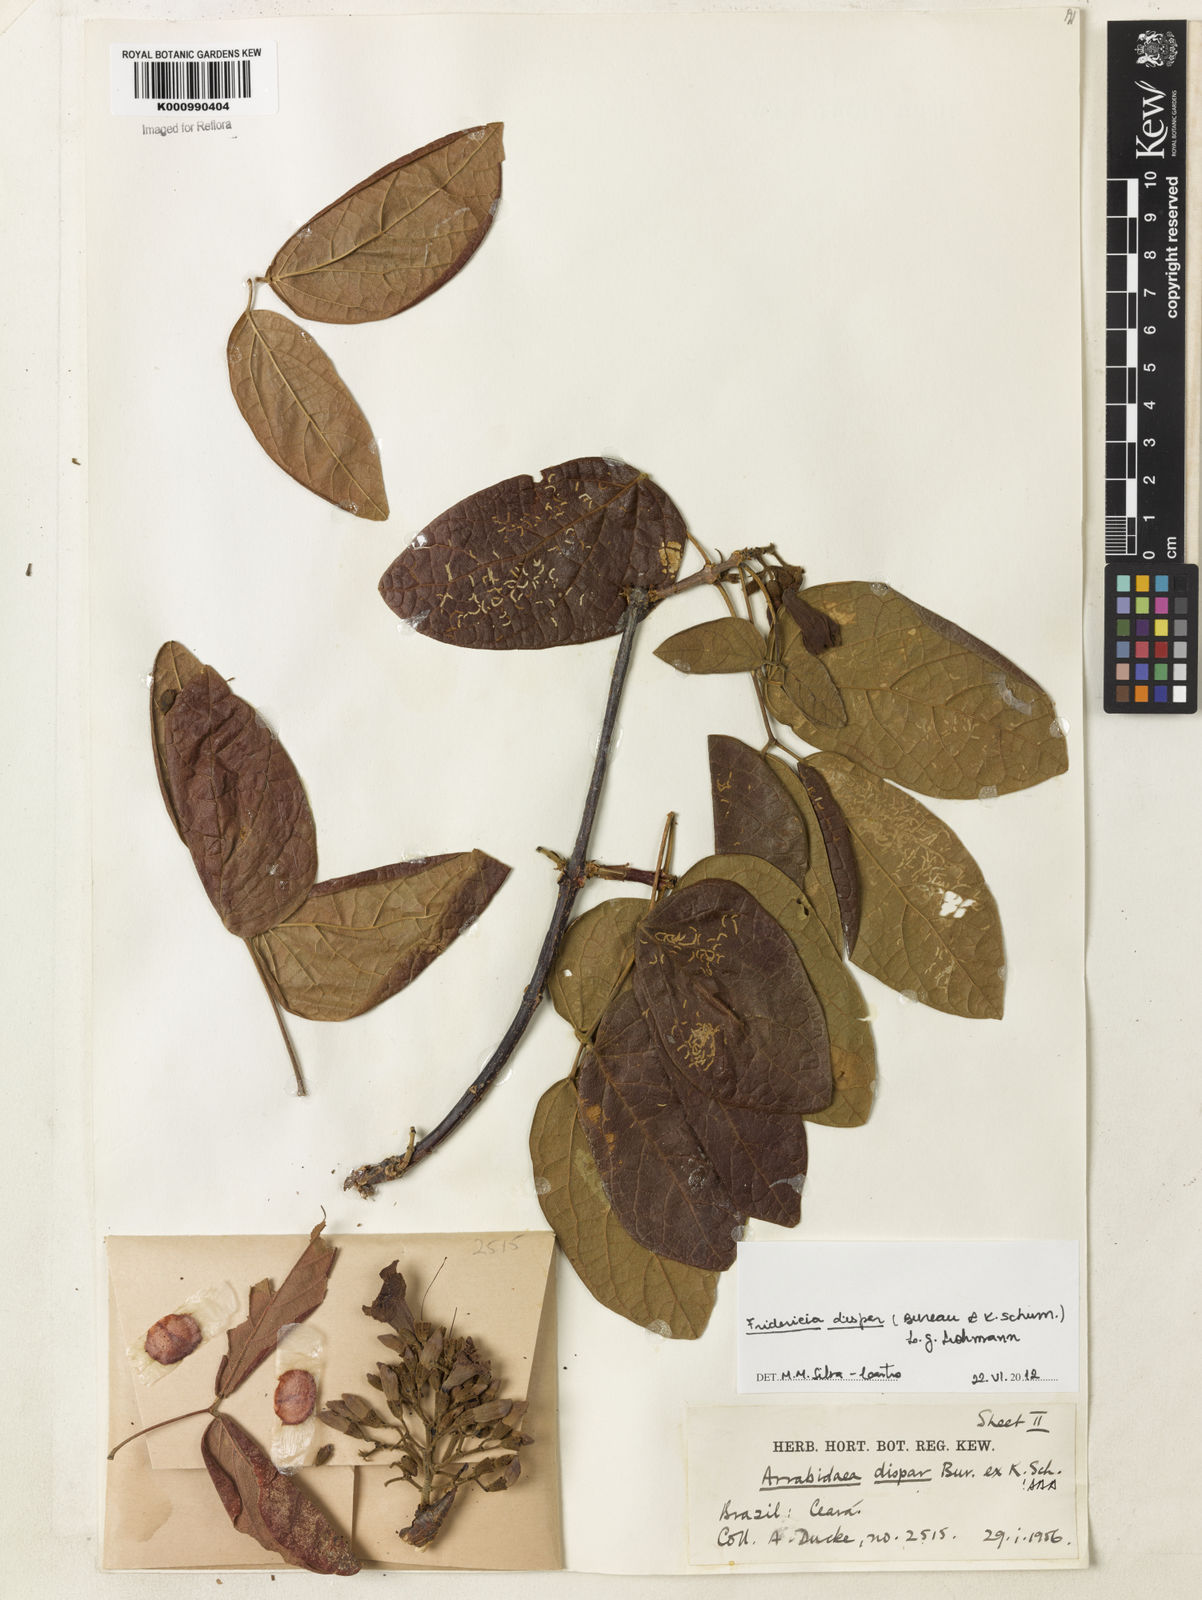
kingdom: Plantae
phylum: Tracheophyta
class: Magnoliopsida
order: Lamiales
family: Bignoniaceae
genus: Fridericia
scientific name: Fridericia dispar
